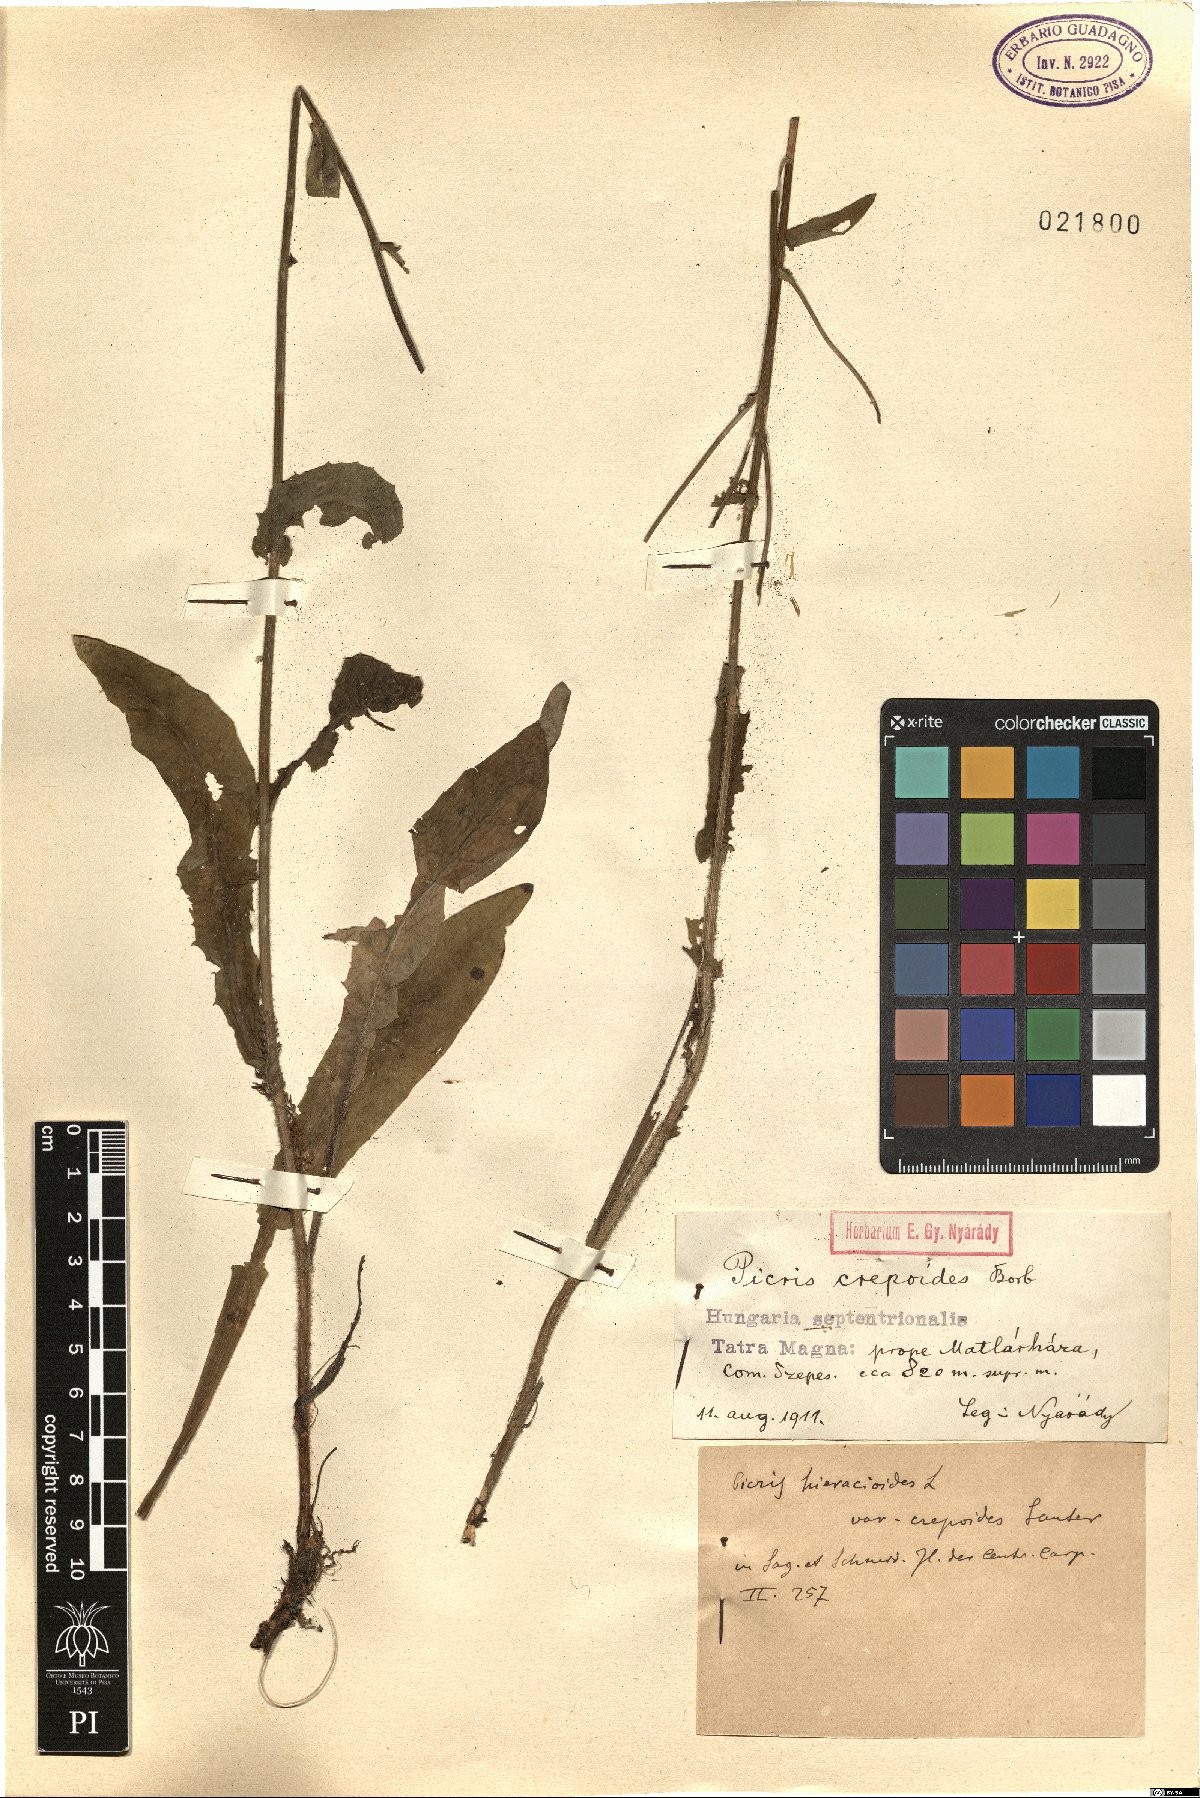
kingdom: Plantae
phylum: Tracheophyta
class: Magnoliopsida
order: Asterales
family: Asteraceae
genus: Picris
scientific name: Picris hieracioides
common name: Hawkweed oxtongue
